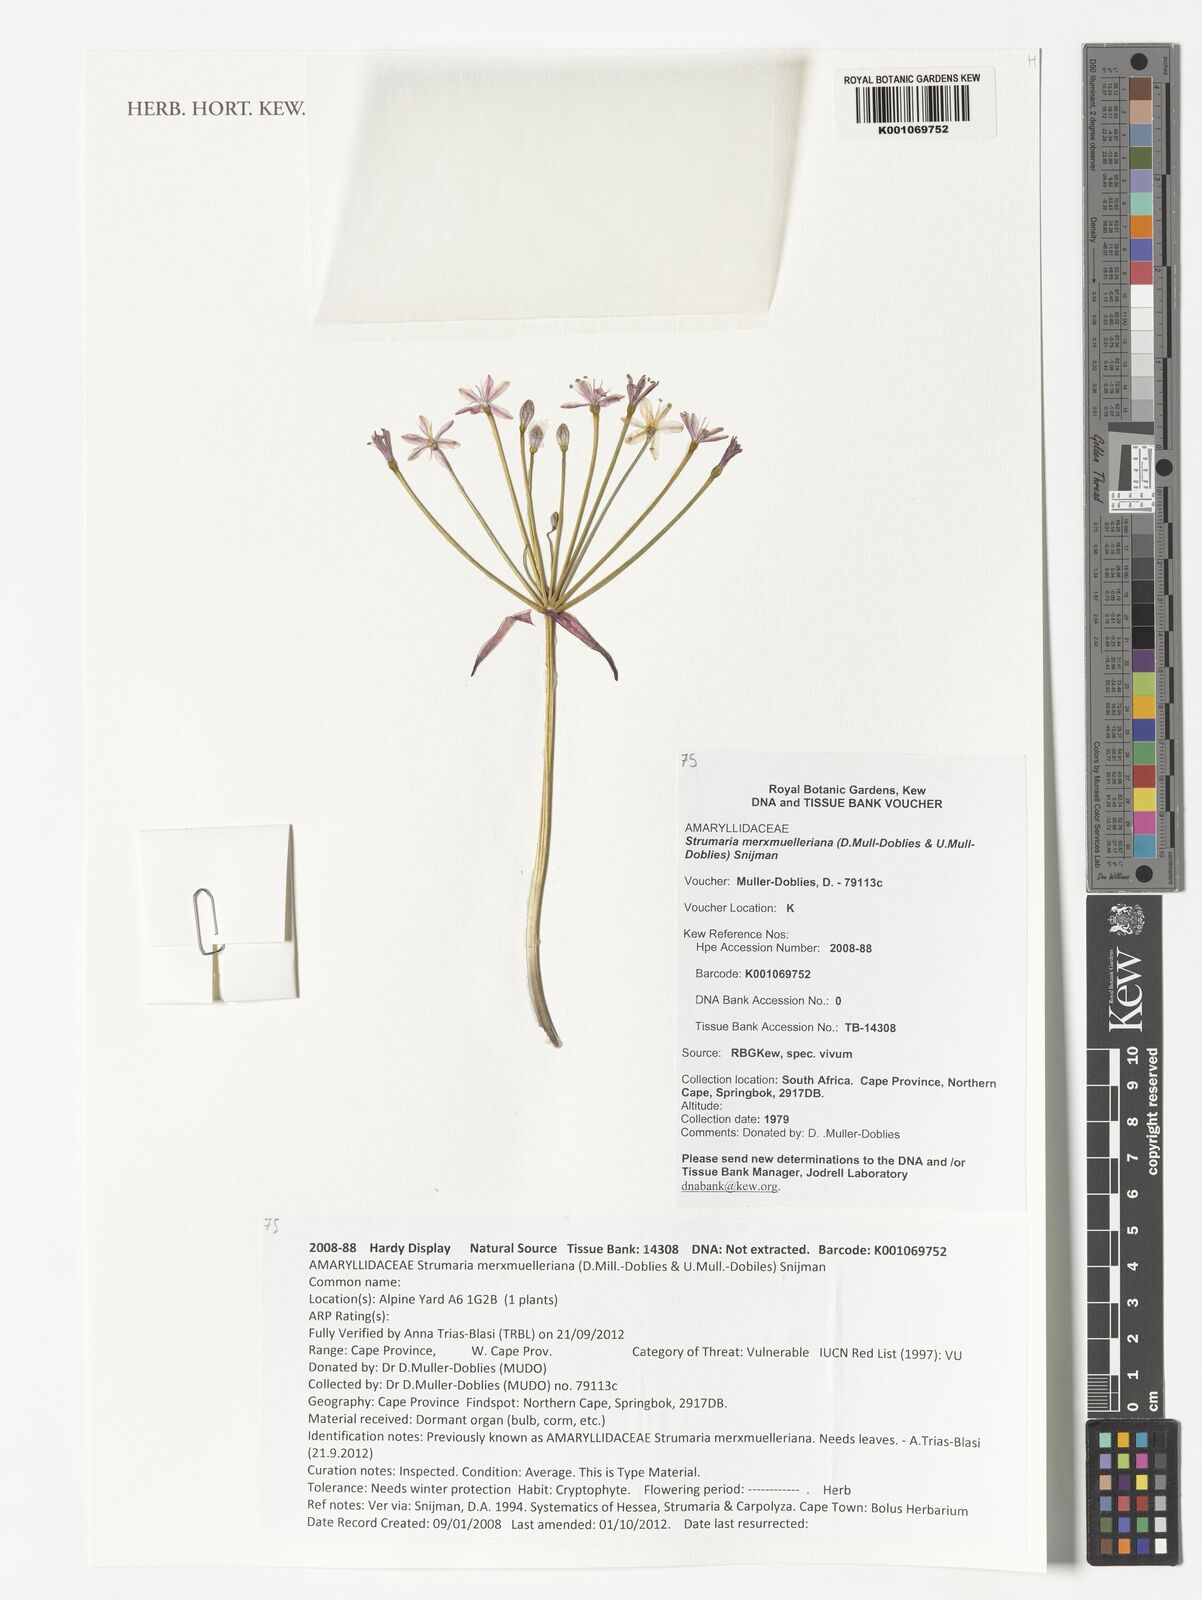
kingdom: Plantae
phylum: Tracheophyta
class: Liliopsida
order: Asparagales
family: Amaryllidaceae
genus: Strumaria
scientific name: Strumaria merxmuelleriana
